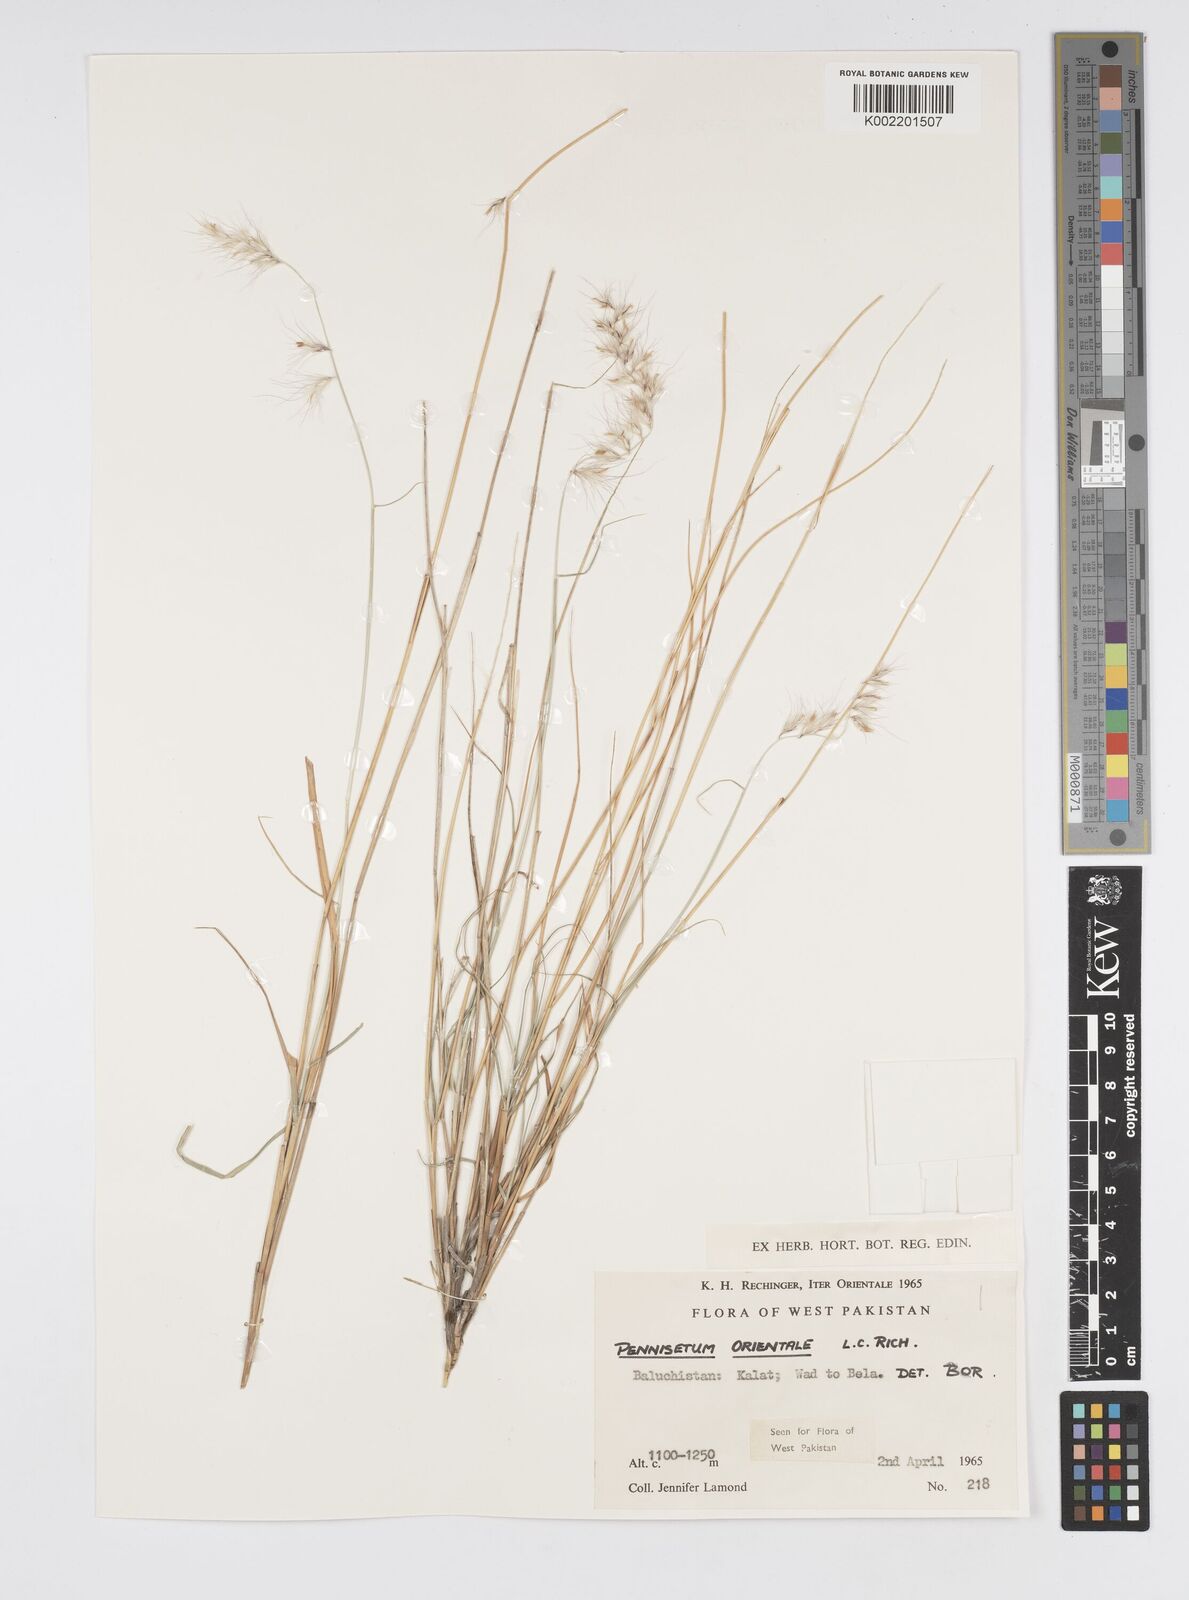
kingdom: Plantae
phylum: Tracheophyta
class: Liliopsida
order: Poales
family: Poaceae
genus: Cenchrus
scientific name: Cenchrus orientalis
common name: Oriental fountain grass
